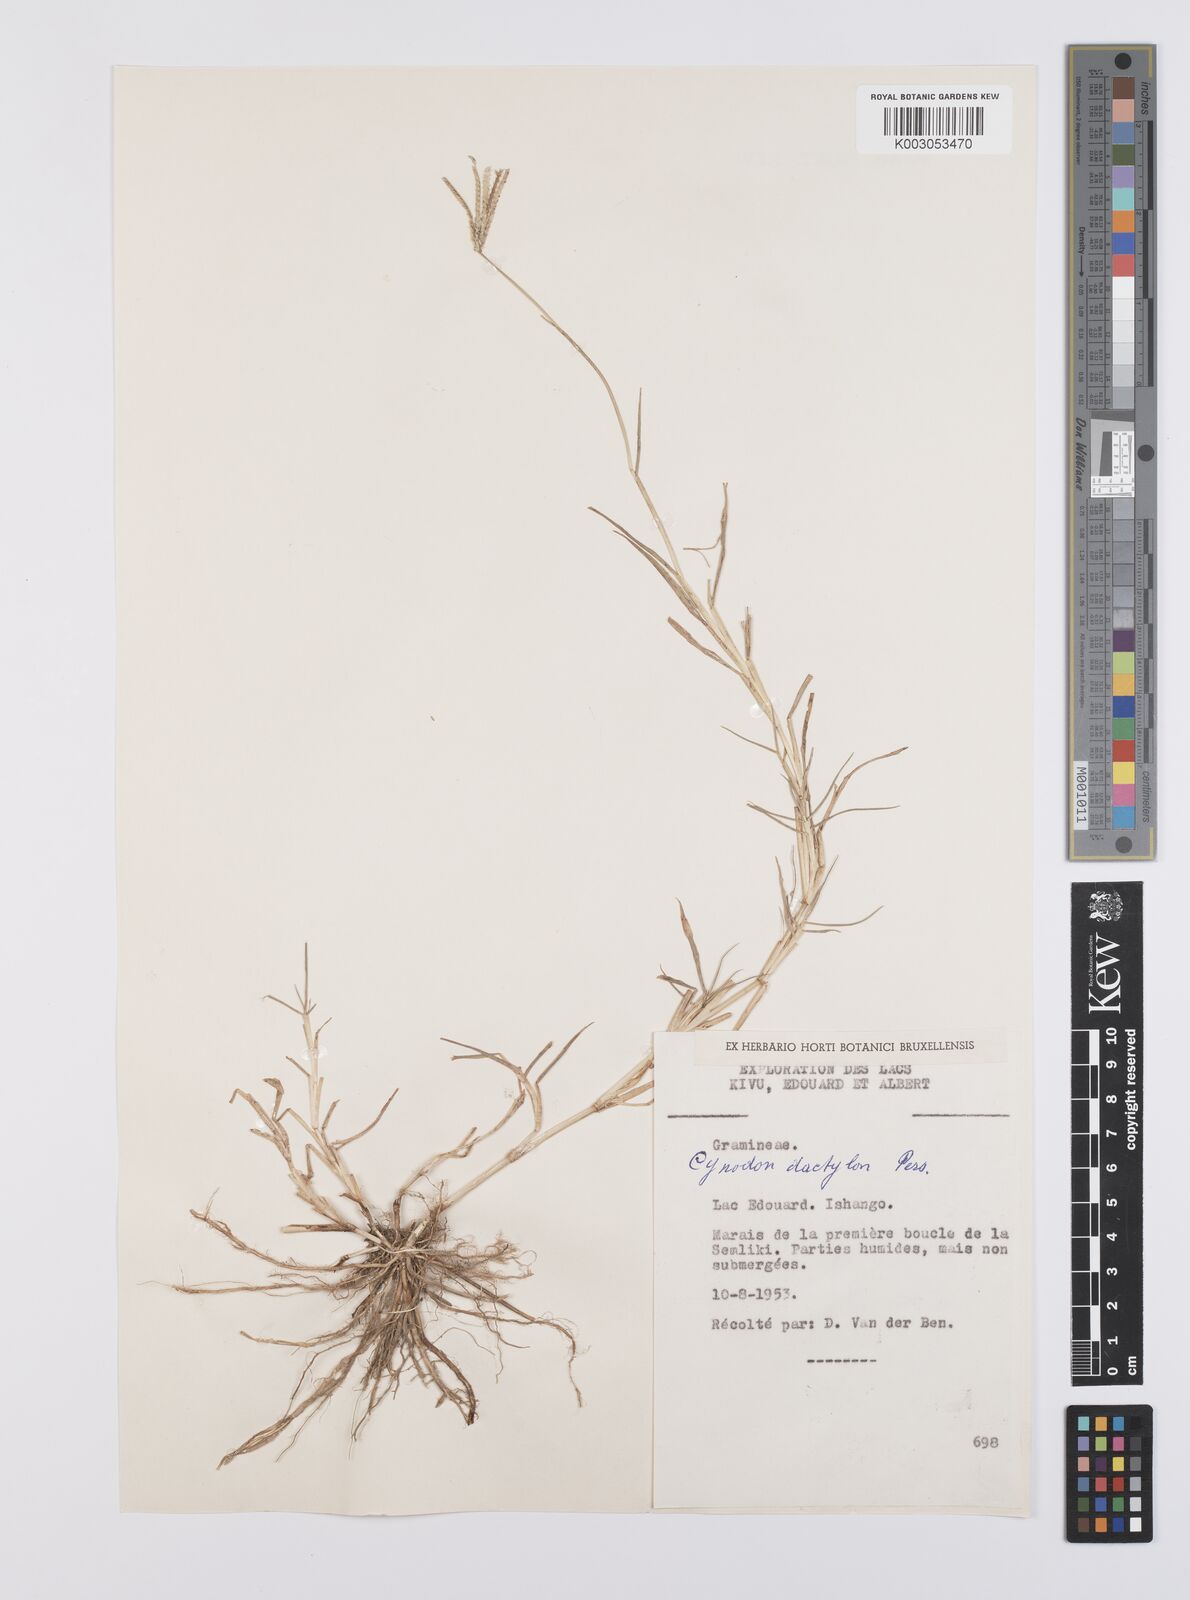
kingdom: Plantae
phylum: Tracheophyta
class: Liliopsida
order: Poales
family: Poaceae
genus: Cynodon
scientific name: Cynodon dactylon
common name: Bermuda grass
